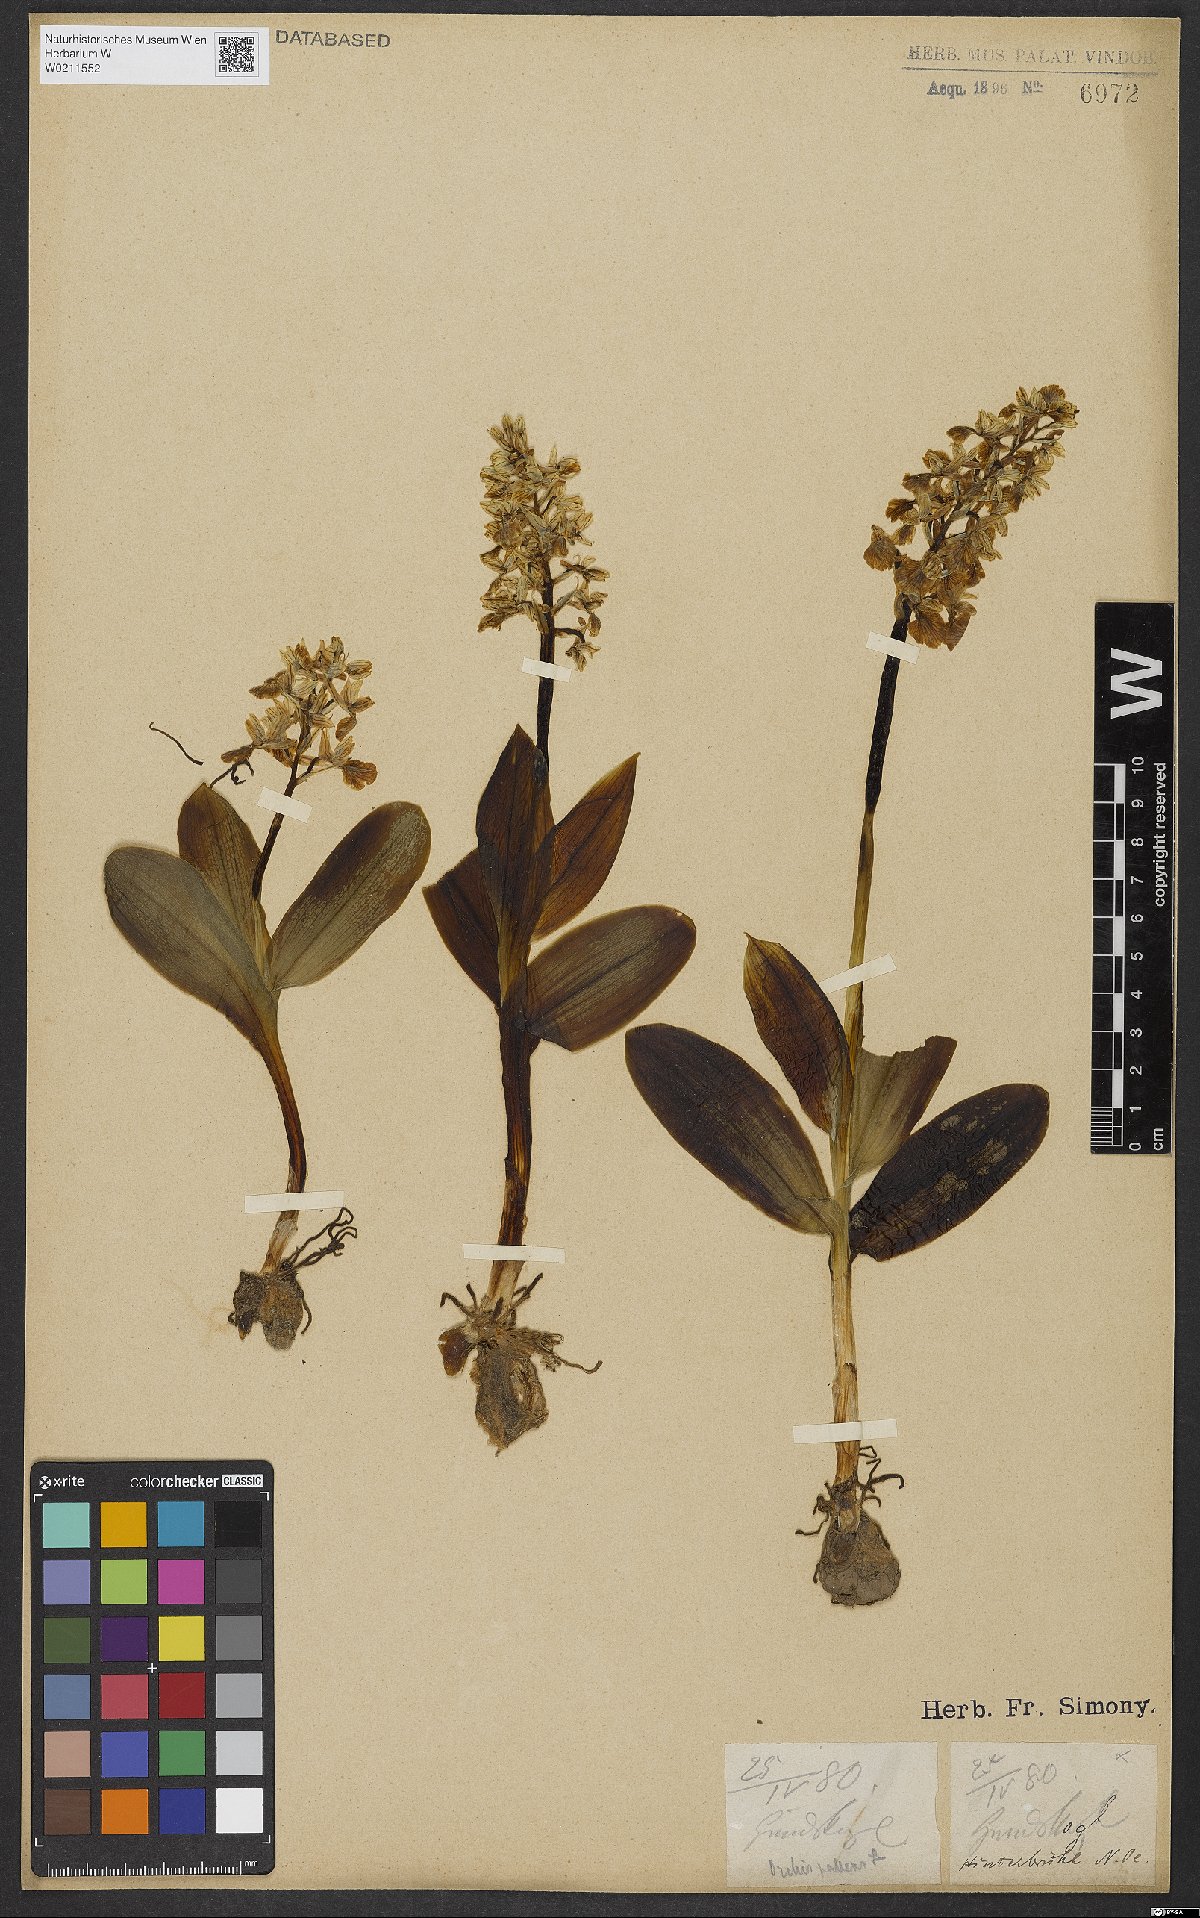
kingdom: Plantae
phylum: Tracheophyta
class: Liliopsida
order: Asparagales
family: Orchidaceae
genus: Orchis
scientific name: Orchis pallens
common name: Pale-flowered orchid
